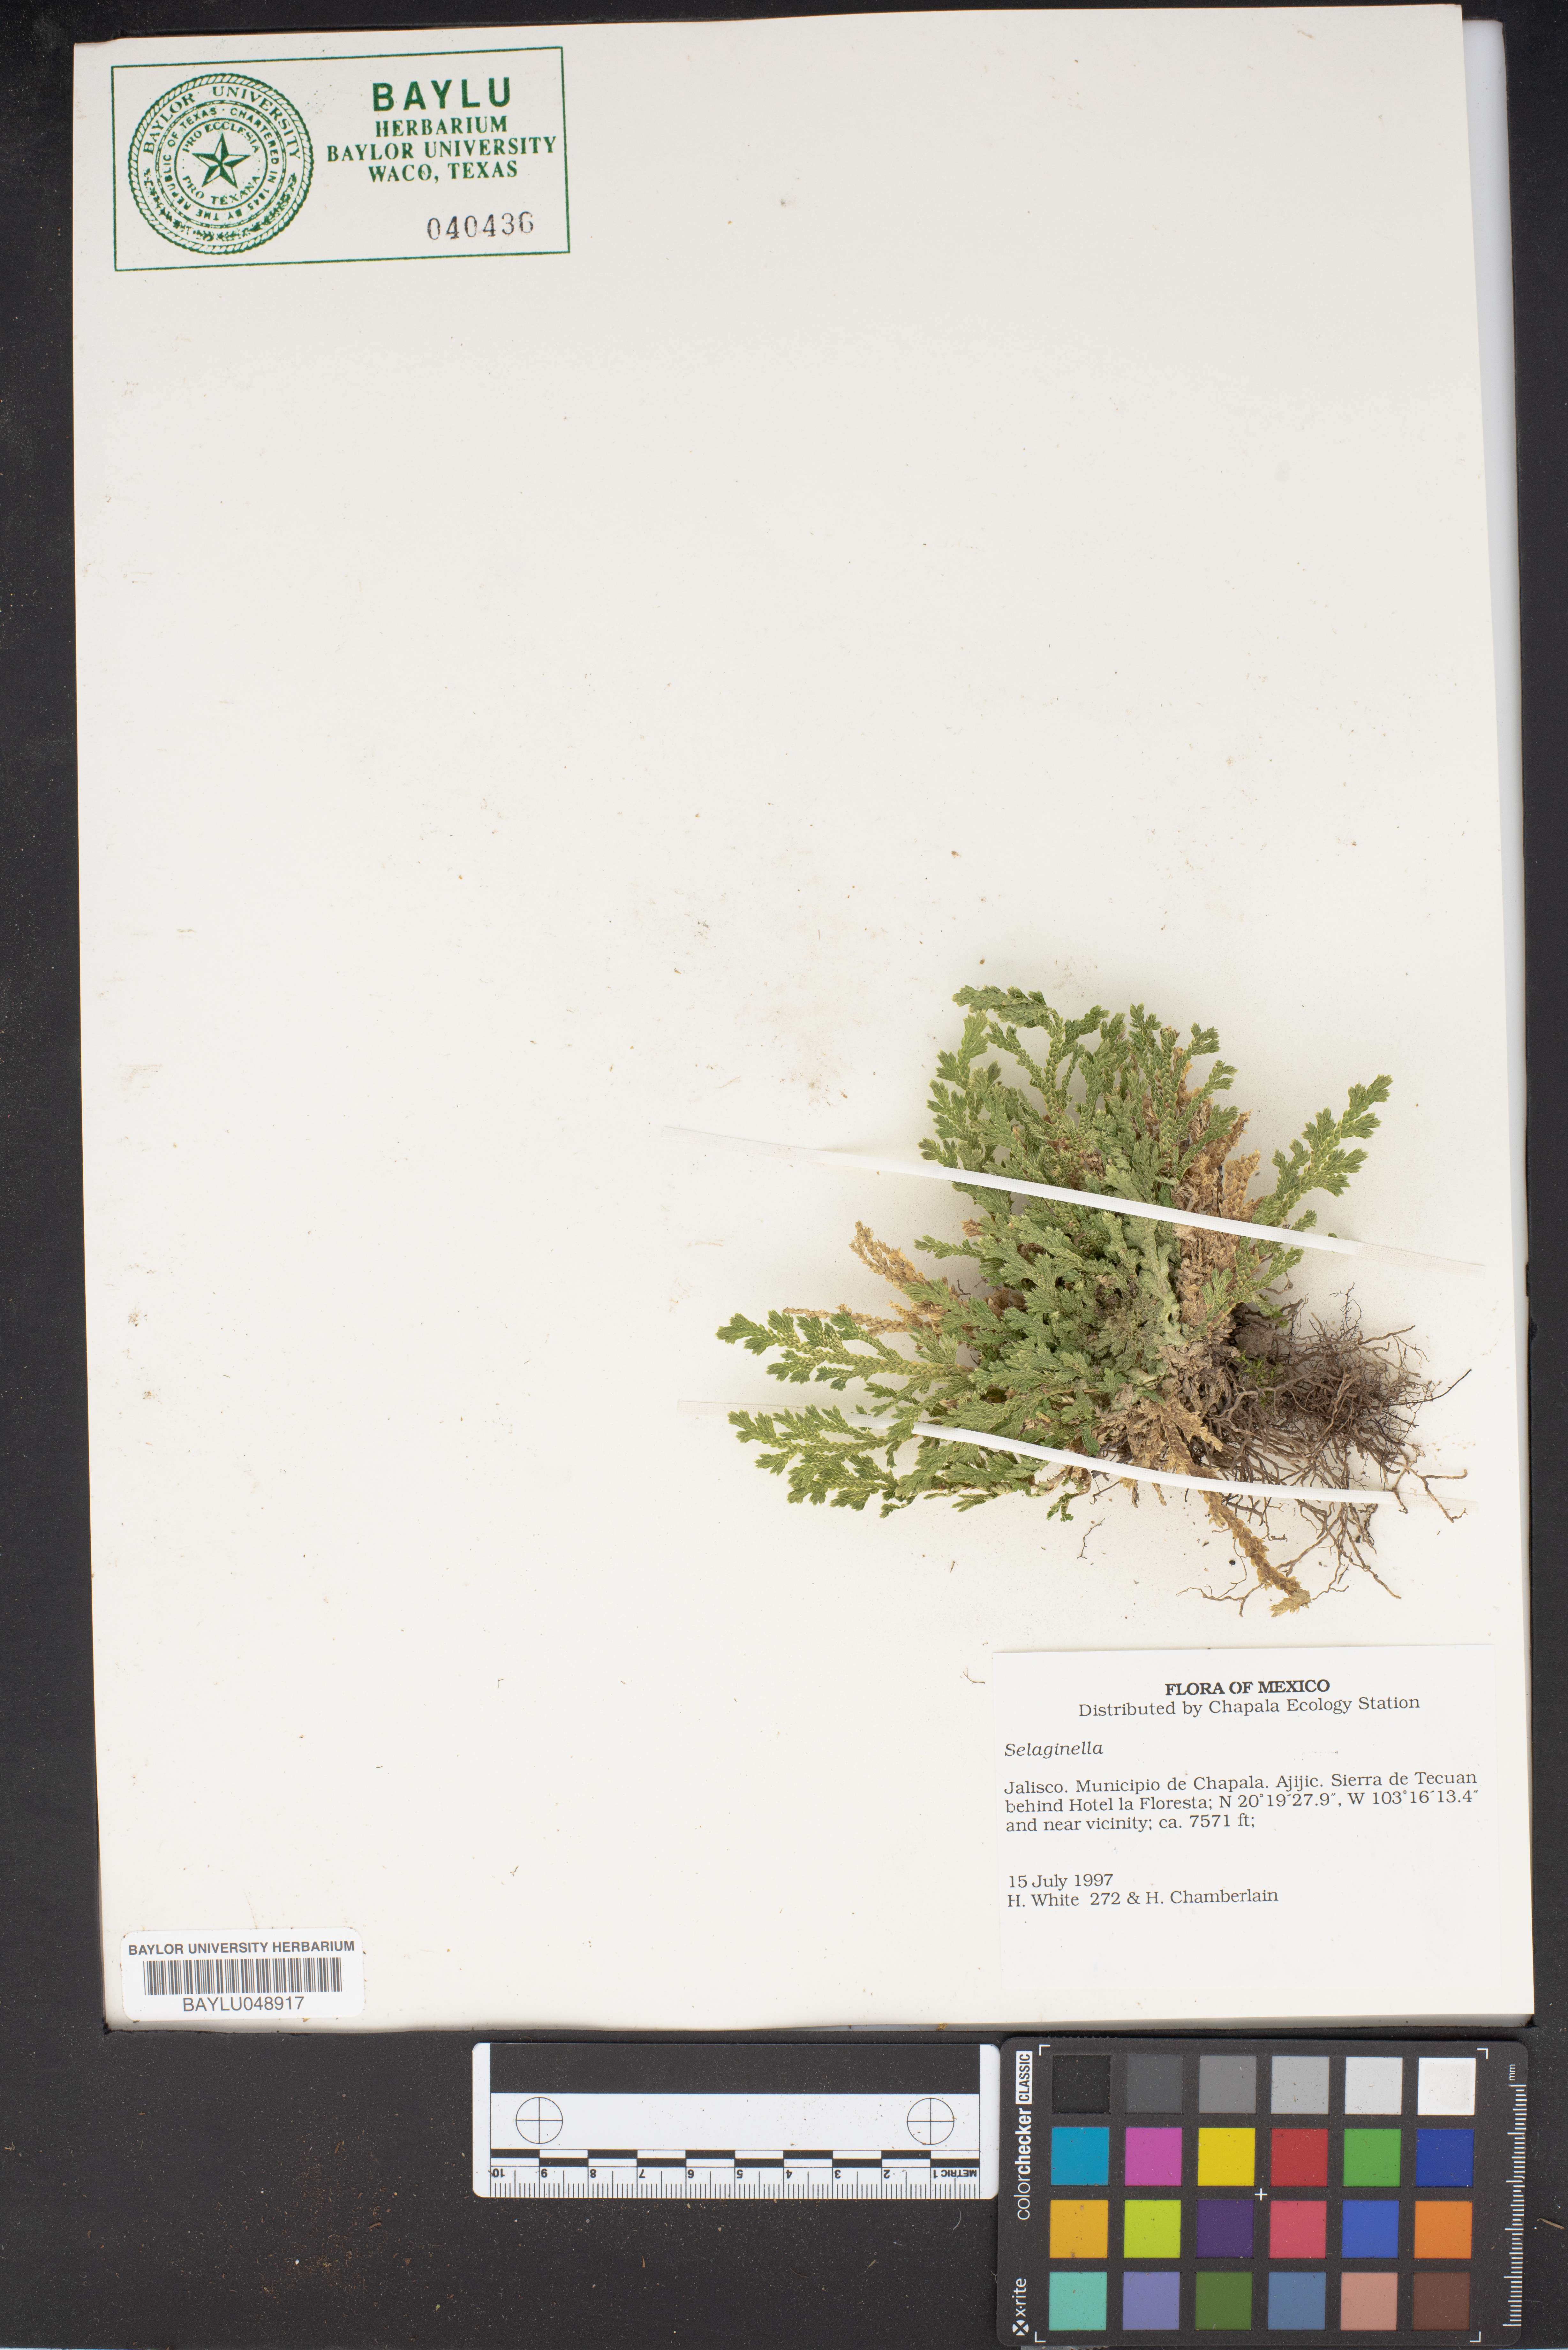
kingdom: Plantae
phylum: Tracheophyta
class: Lycopodiopsida
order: Selaginellales
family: Selaginellaceae
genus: Selaginella
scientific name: Selaginella
